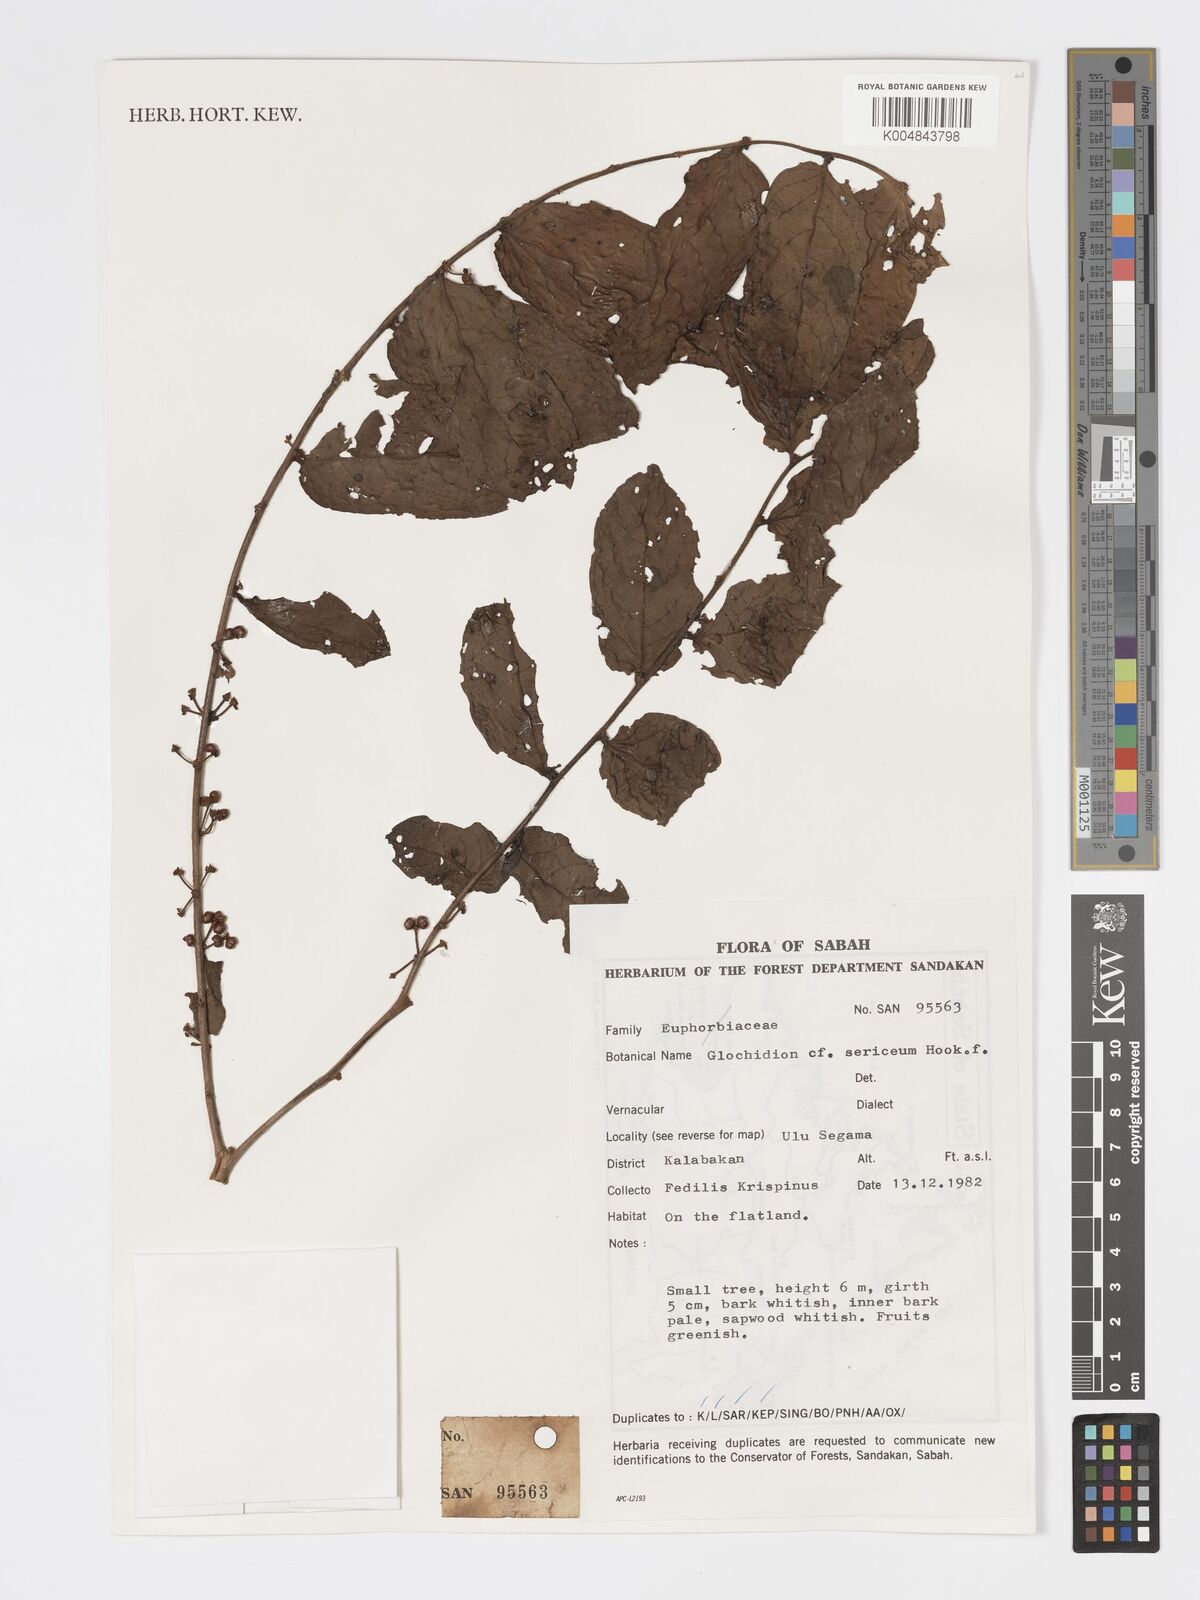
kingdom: Plantae
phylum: Tracheophyta
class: Magnoliopsida
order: Malpighiales
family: Phyllanthaceae
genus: Glochidion
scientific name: Glochidion sericeum
